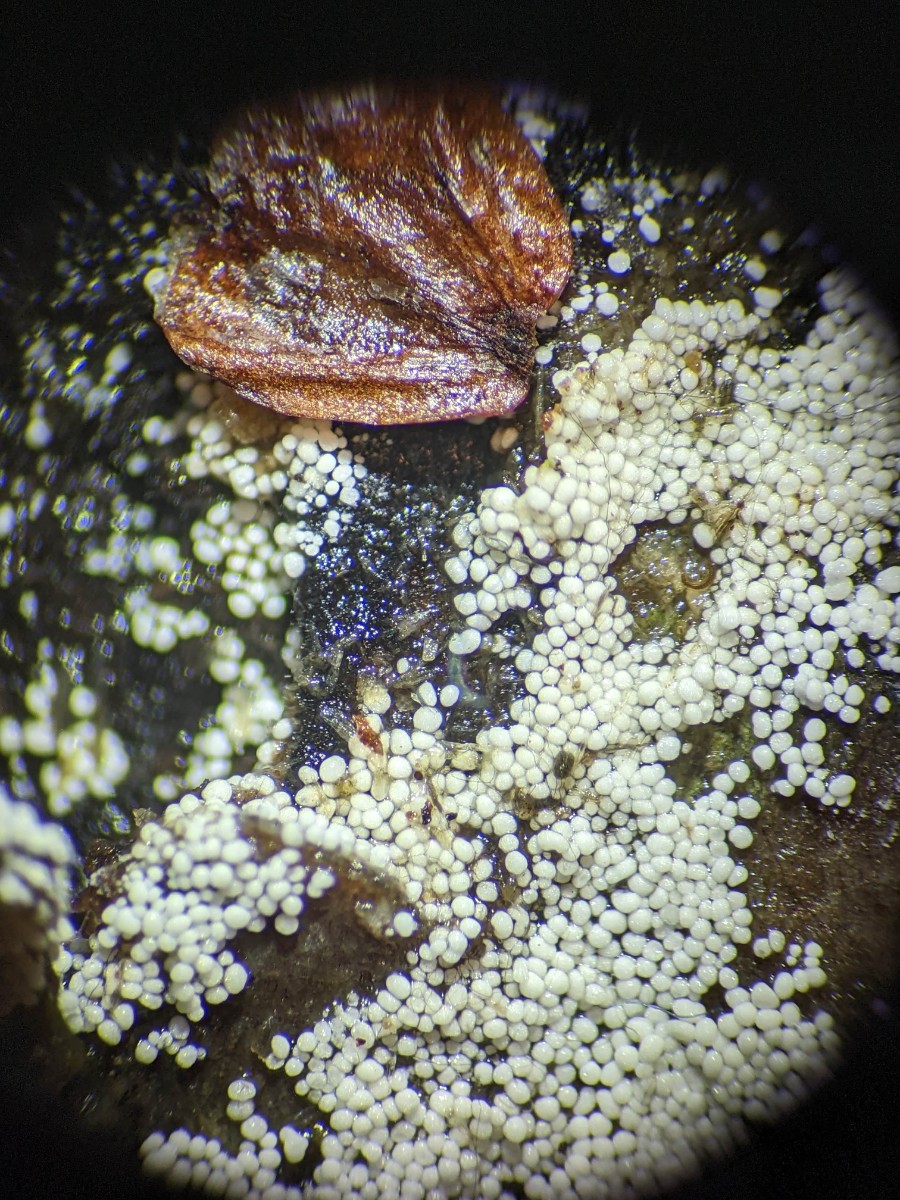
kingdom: Fungi
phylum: Basidiomycota
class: Agaricomycetes
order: Polyporales
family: Meruliaceae
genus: Bulbillomyces
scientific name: Bulbillomyces farinosus
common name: æg-kalkskind
